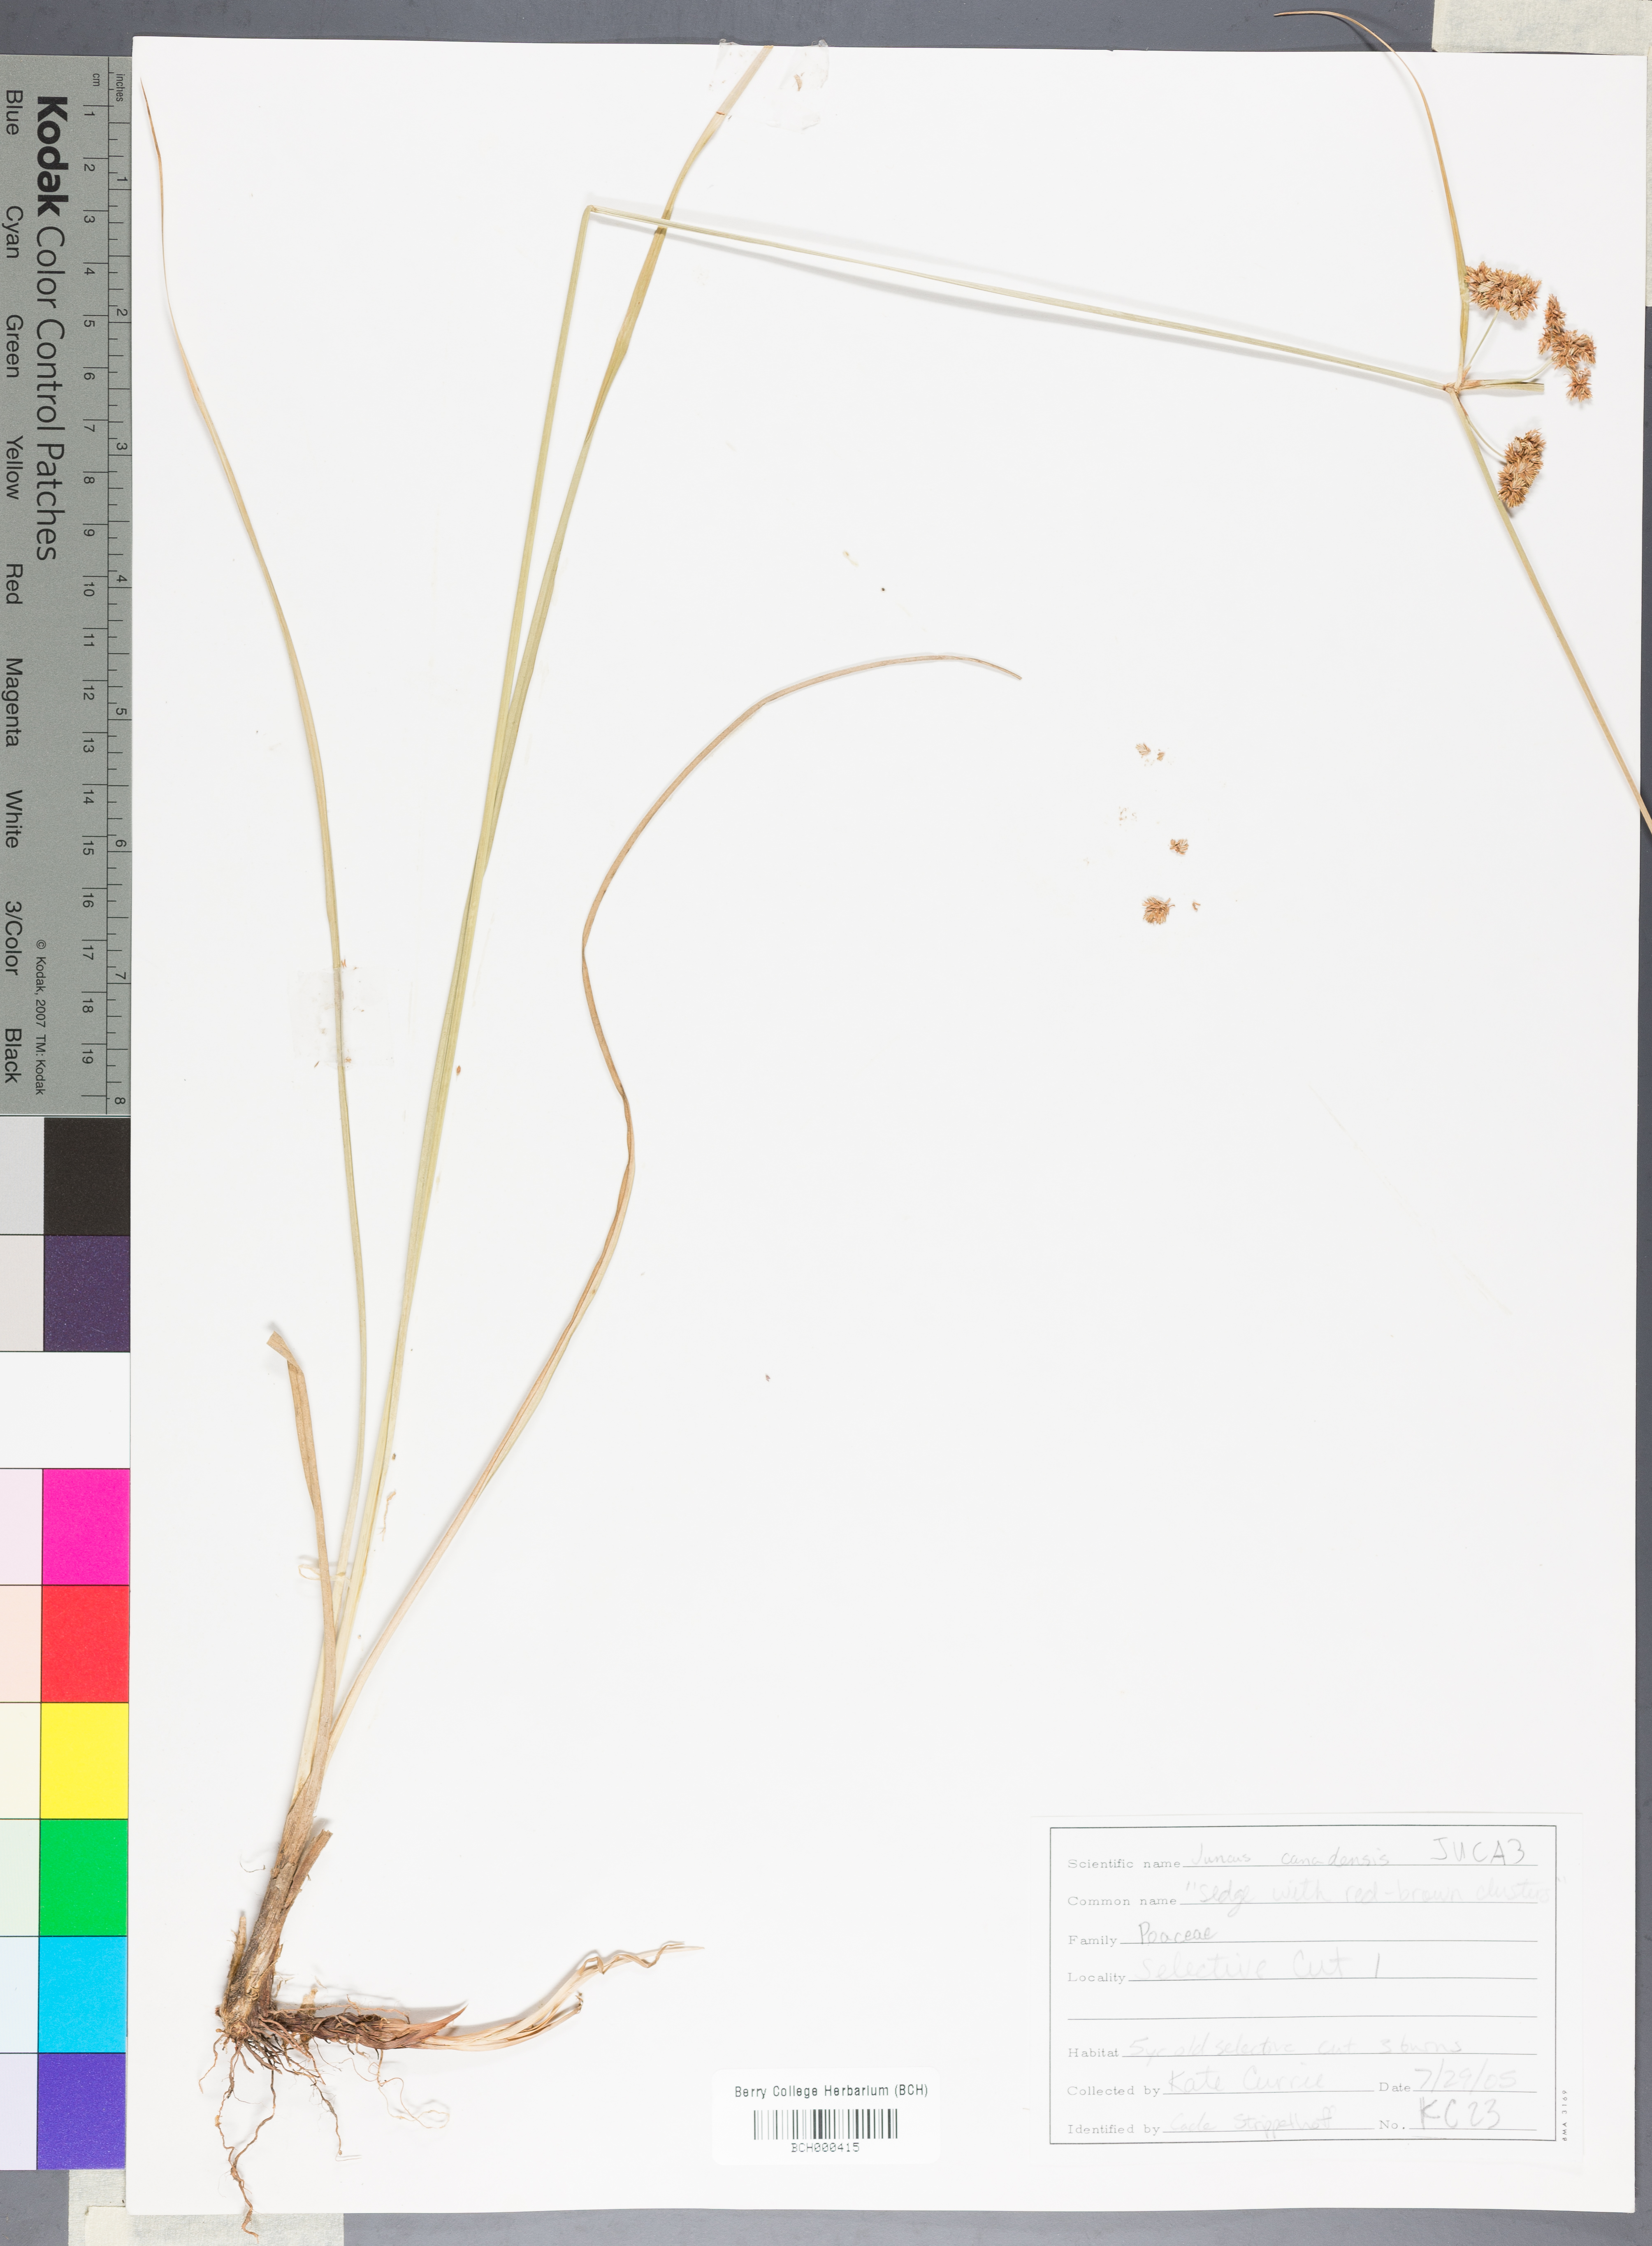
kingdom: Plantae
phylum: Tracheophyta
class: Liliopsida
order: Poales
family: Juncaceae
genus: Juncus
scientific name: Juncus canadensis
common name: Canada rush
